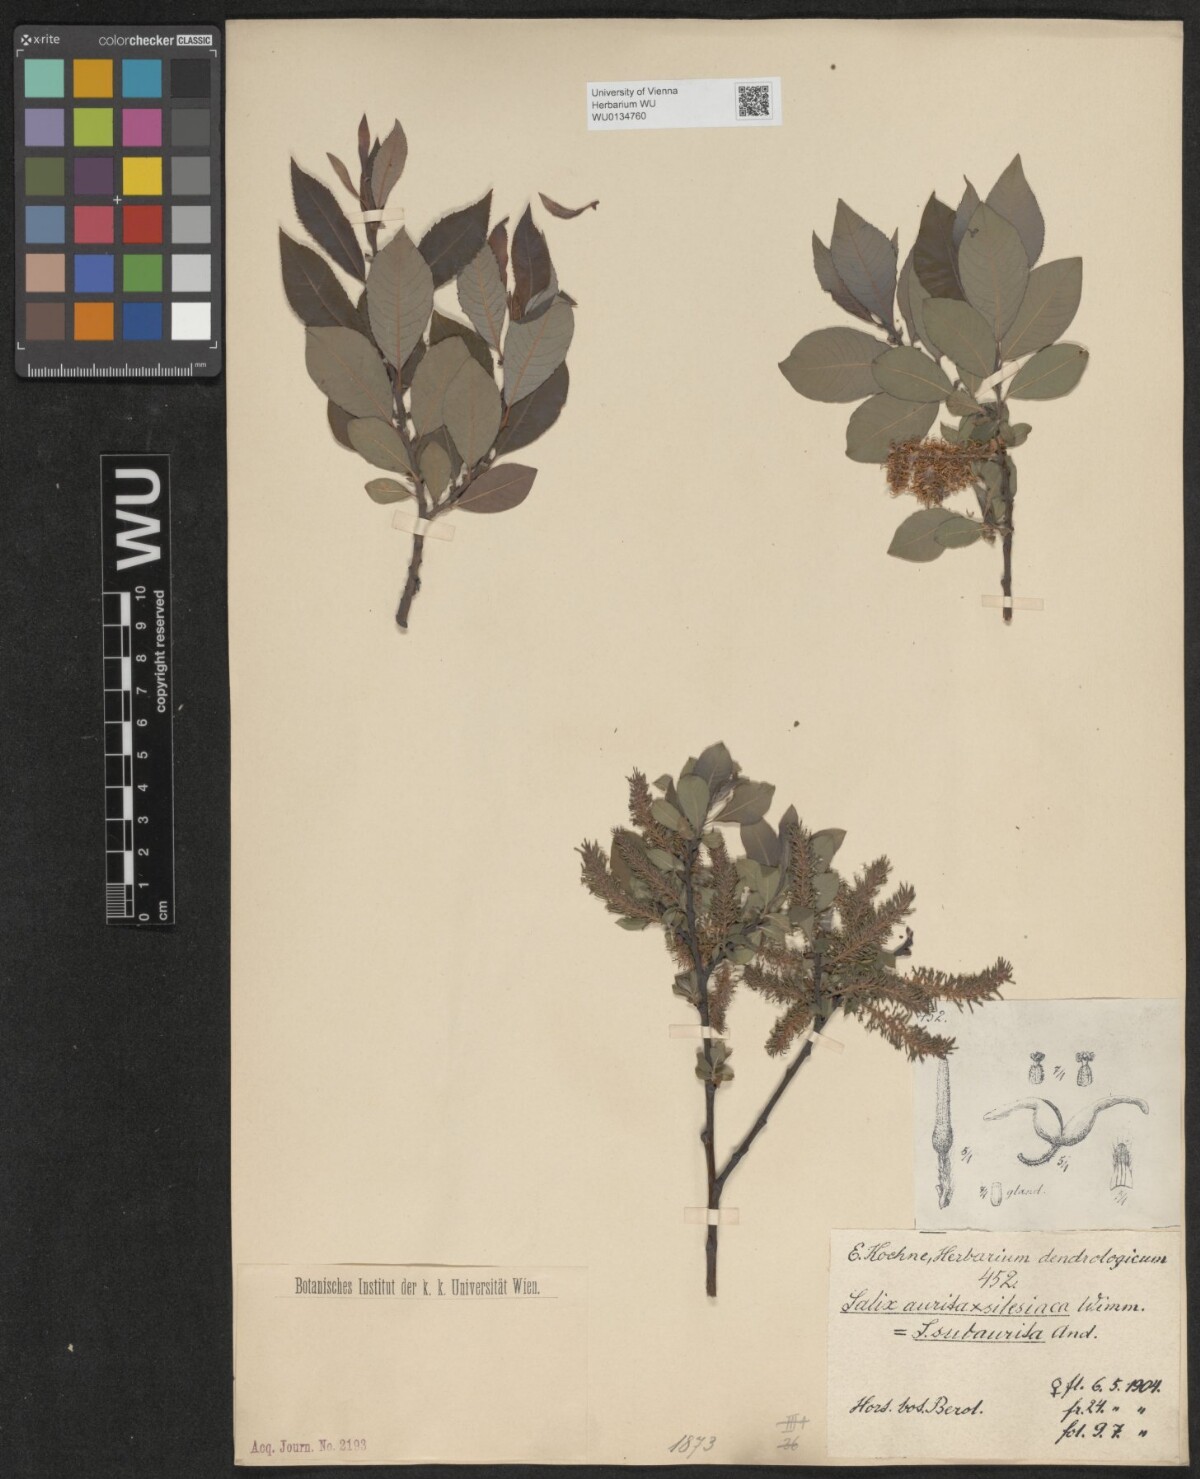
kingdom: Plantae
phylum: Tracheophyta
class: Magnoliopsida
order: Malpighiales
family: Salicaceae
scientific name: Salicaceae
